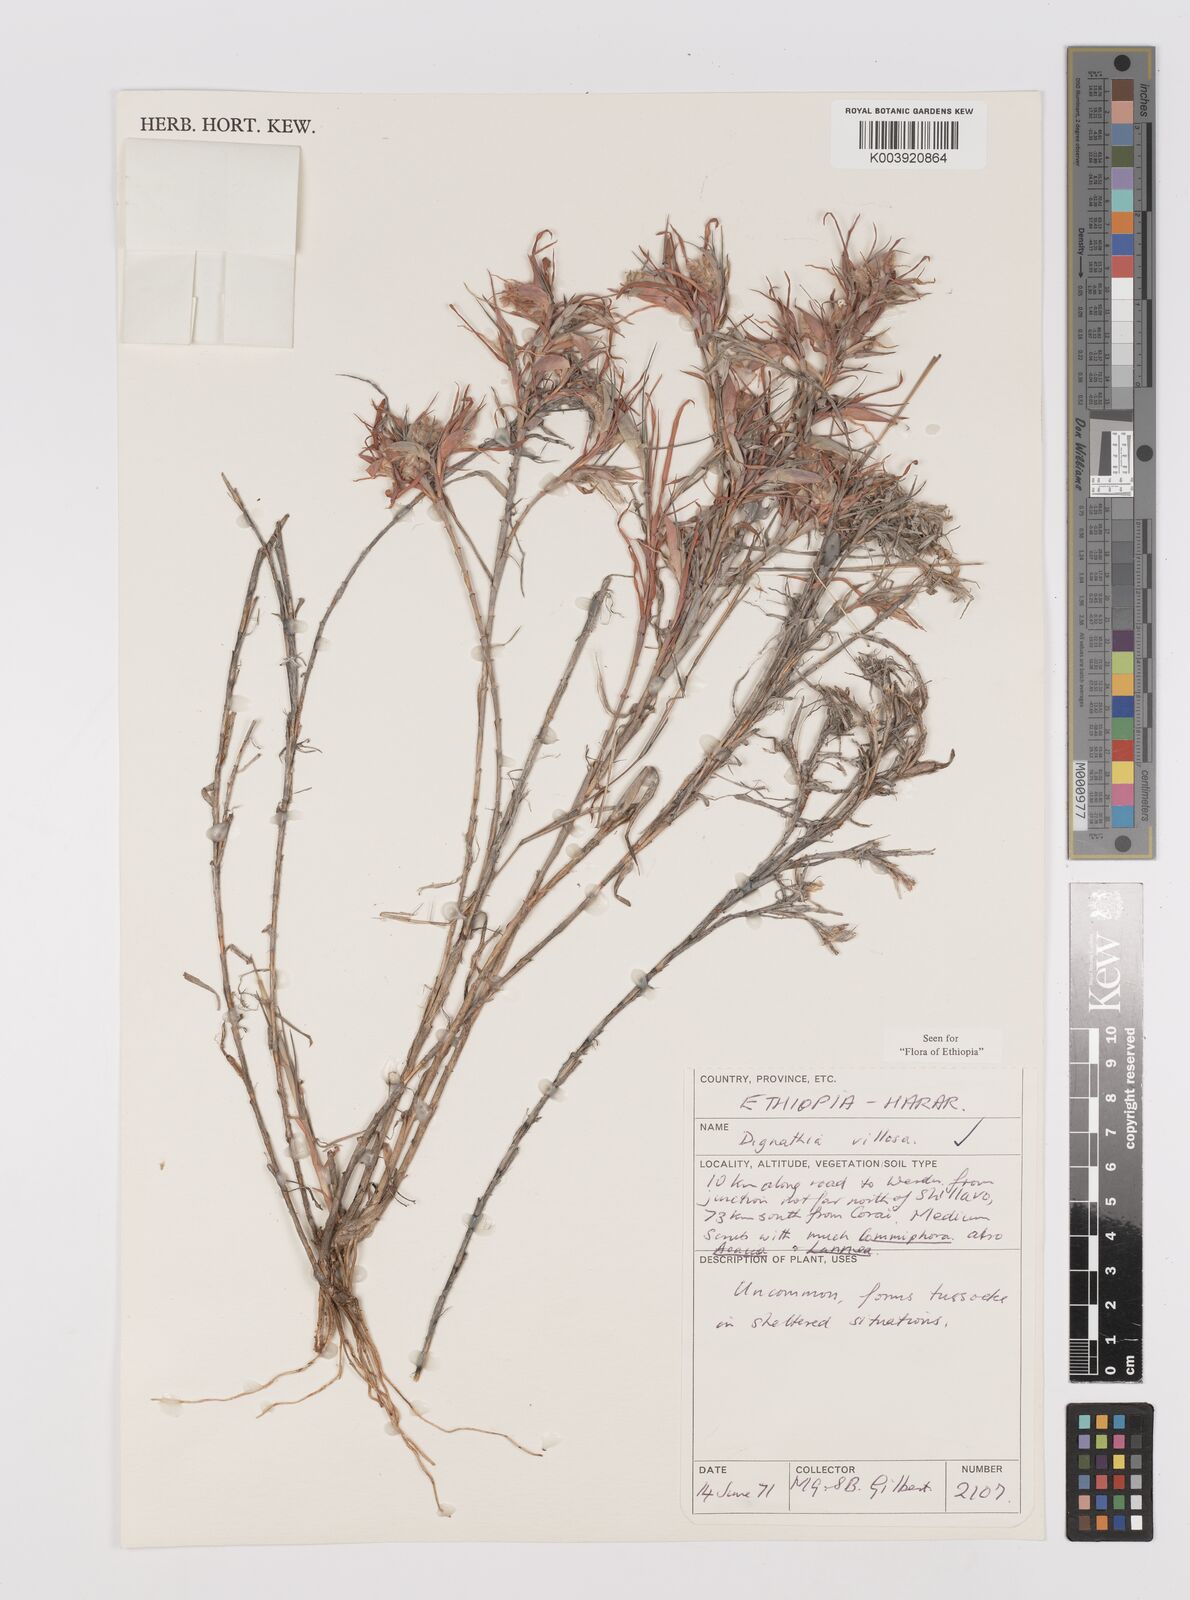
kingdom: Plantae
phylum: Tracheophyta
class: Liliopsida
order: Poales
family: Poaceae
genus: Dignathia
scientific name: Dignathia villosa
